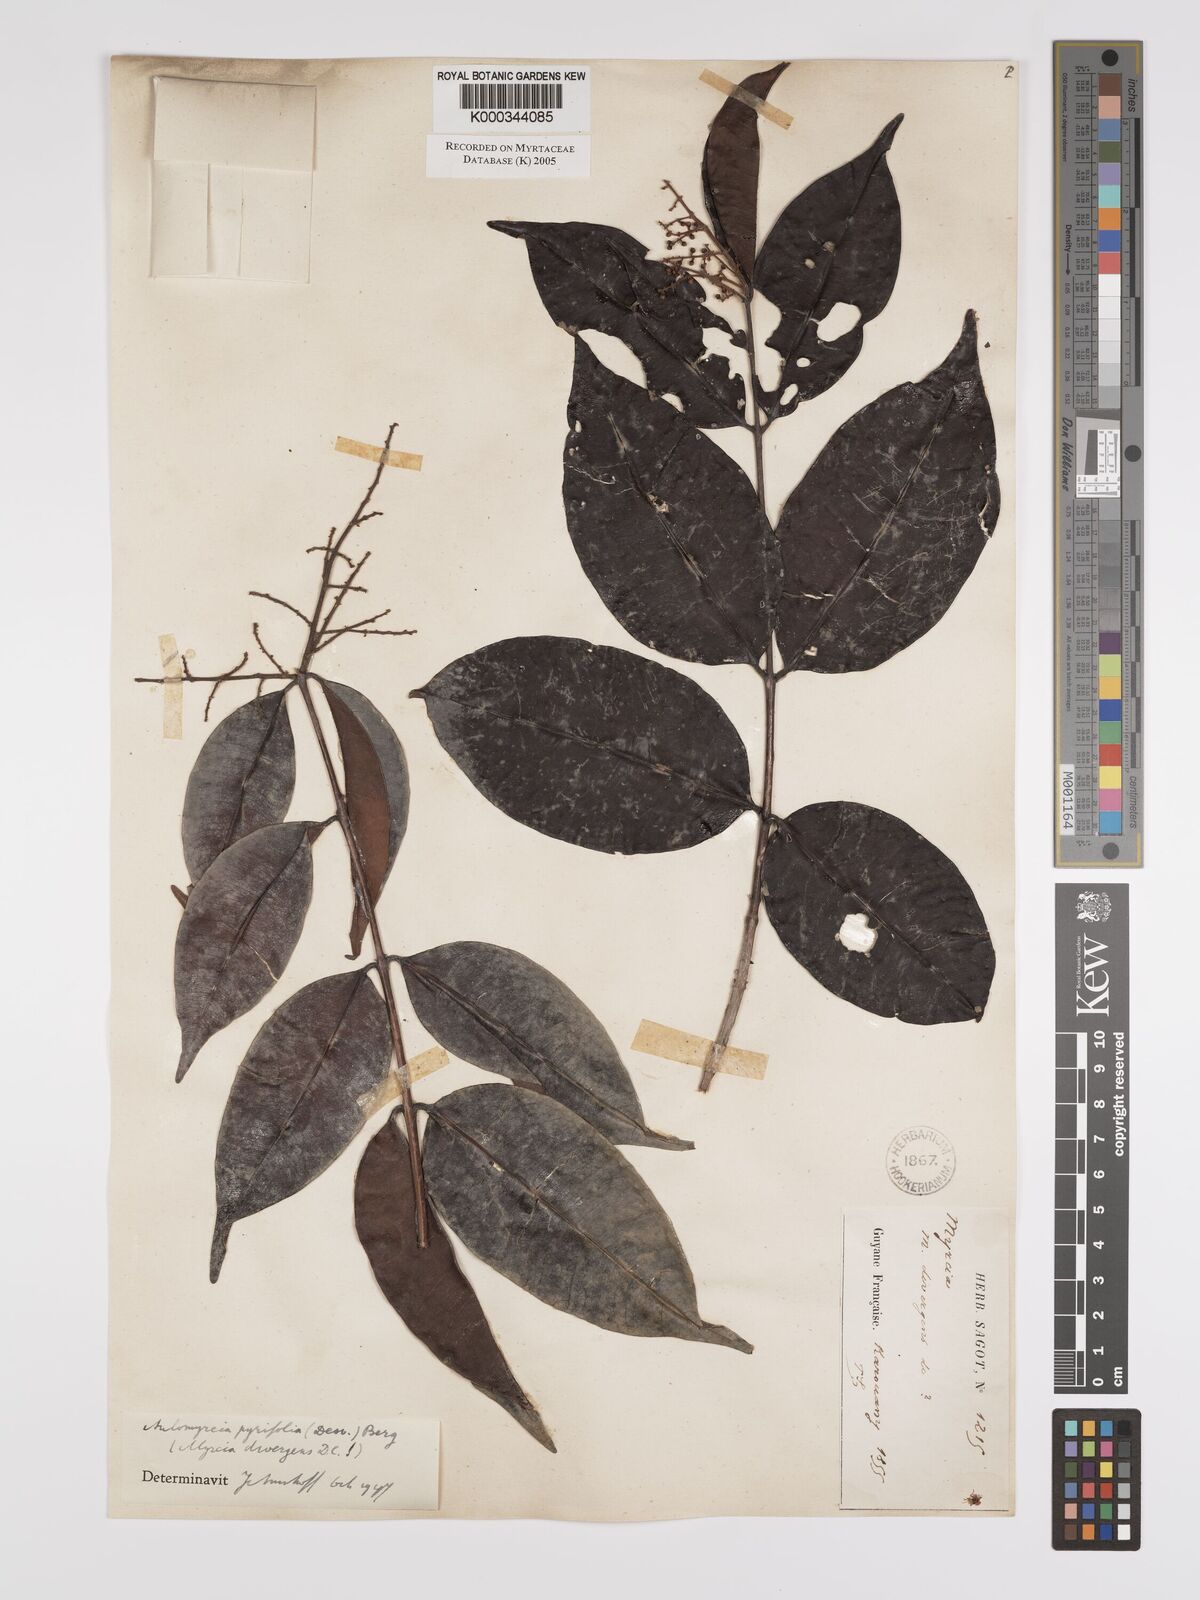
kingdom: Plantae
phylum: Tracheophyta
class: Magnoliopsida
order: Myrtales
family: Myrtaceae
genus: Myrcia
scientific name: Myrcia pyrifolia
